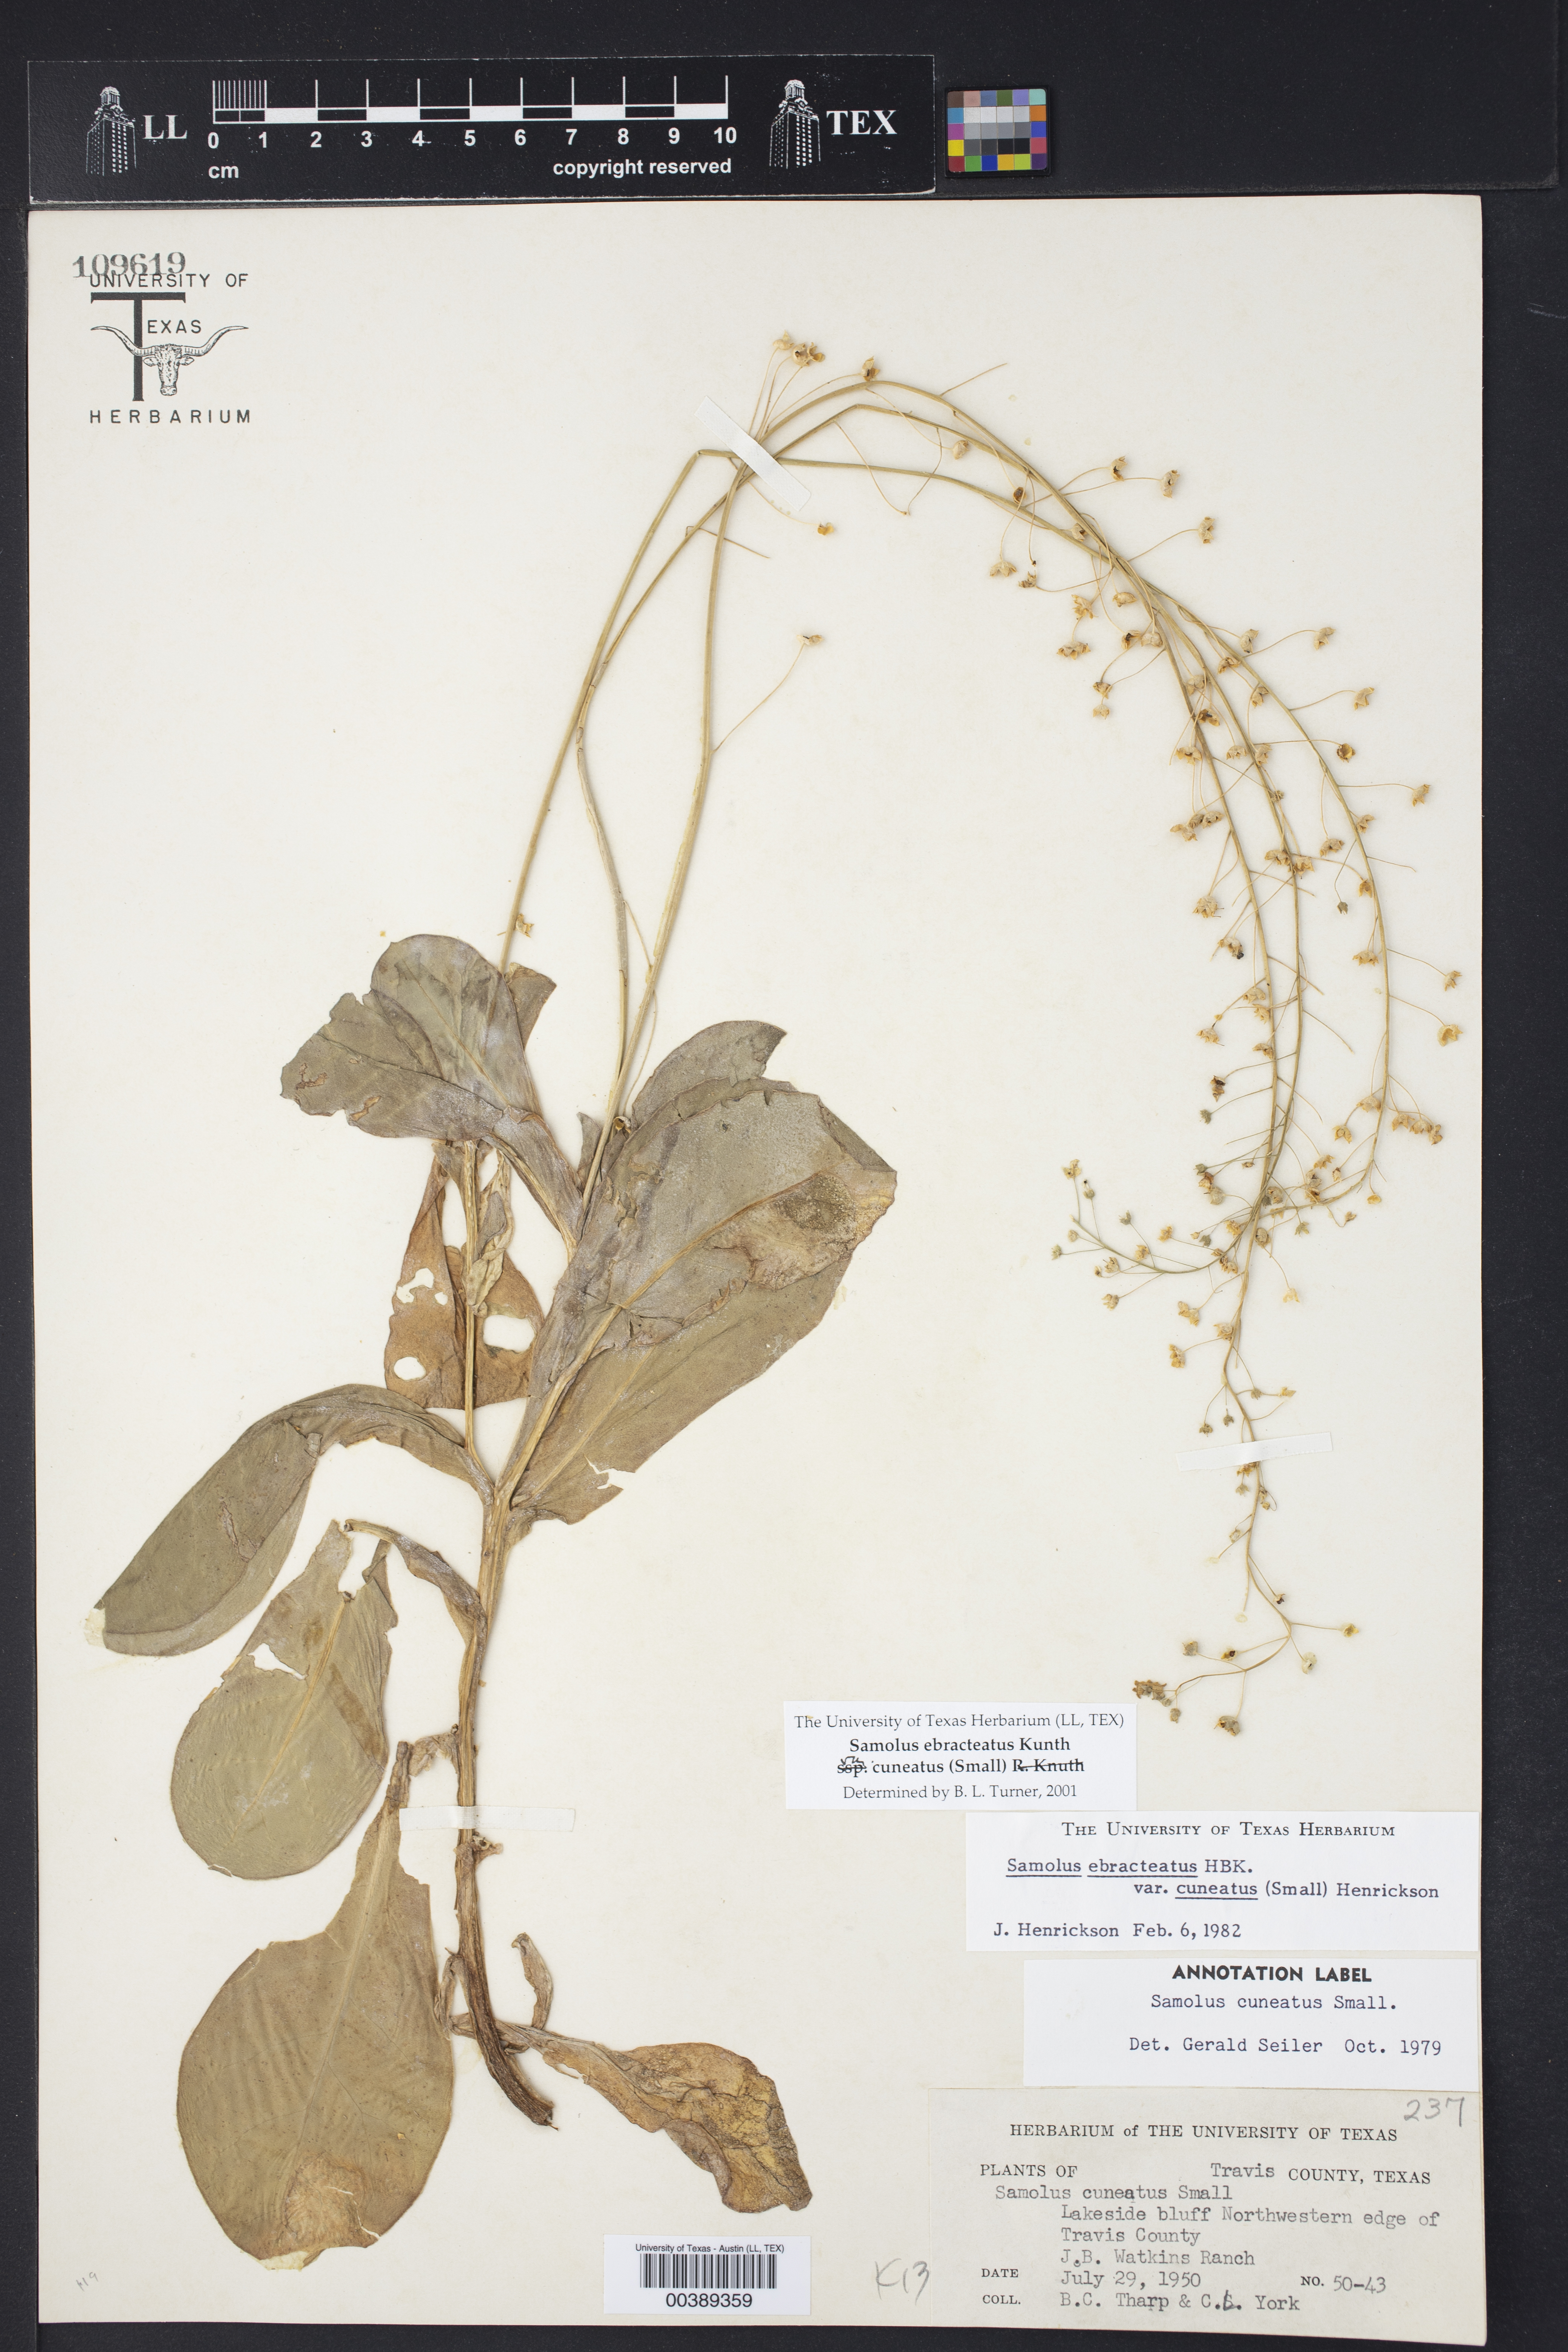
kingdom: Plantae
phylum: Tracheophyta
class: Magnoliopsida
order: Ericales
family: Primulaceae
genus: Samolus
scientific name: Samolus ebracteatus
